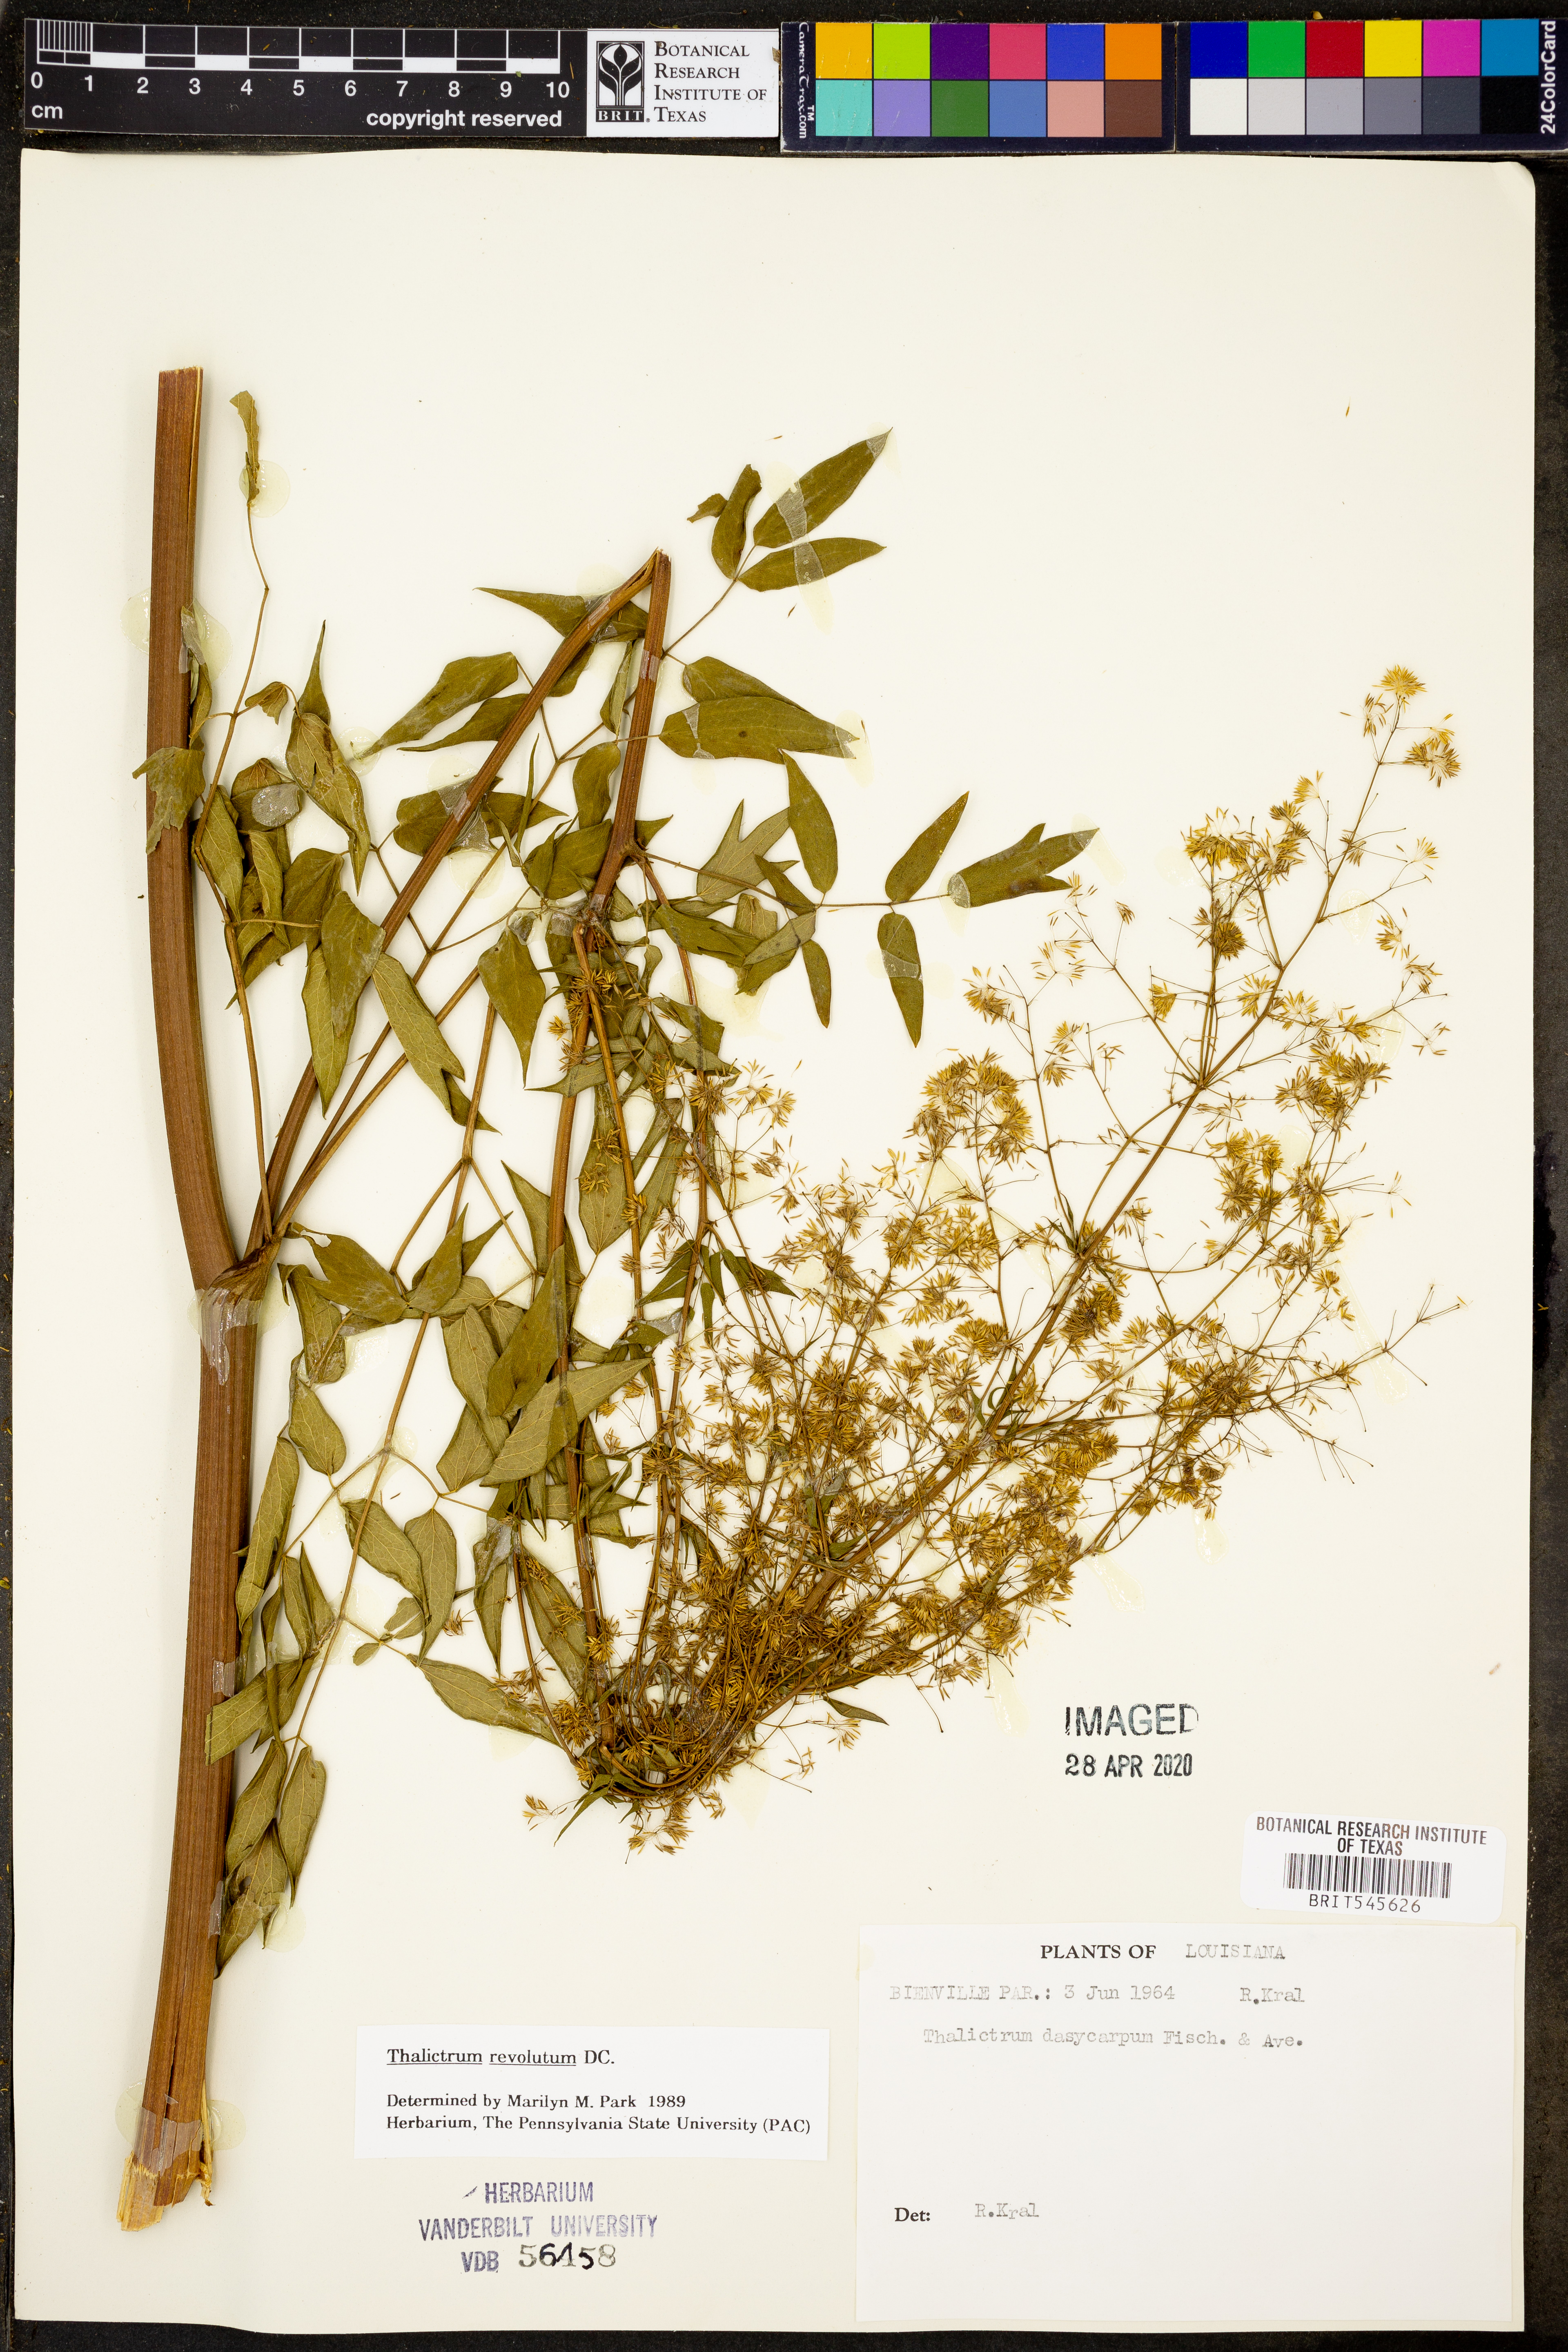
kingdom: Plantae
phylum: Tracheophyta
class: Magnoliopsida
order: Ranunculales
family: Ranunculaceae
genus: Thalictrum
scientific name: Thalictrum revolutum
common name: Waxy meadow-rue
